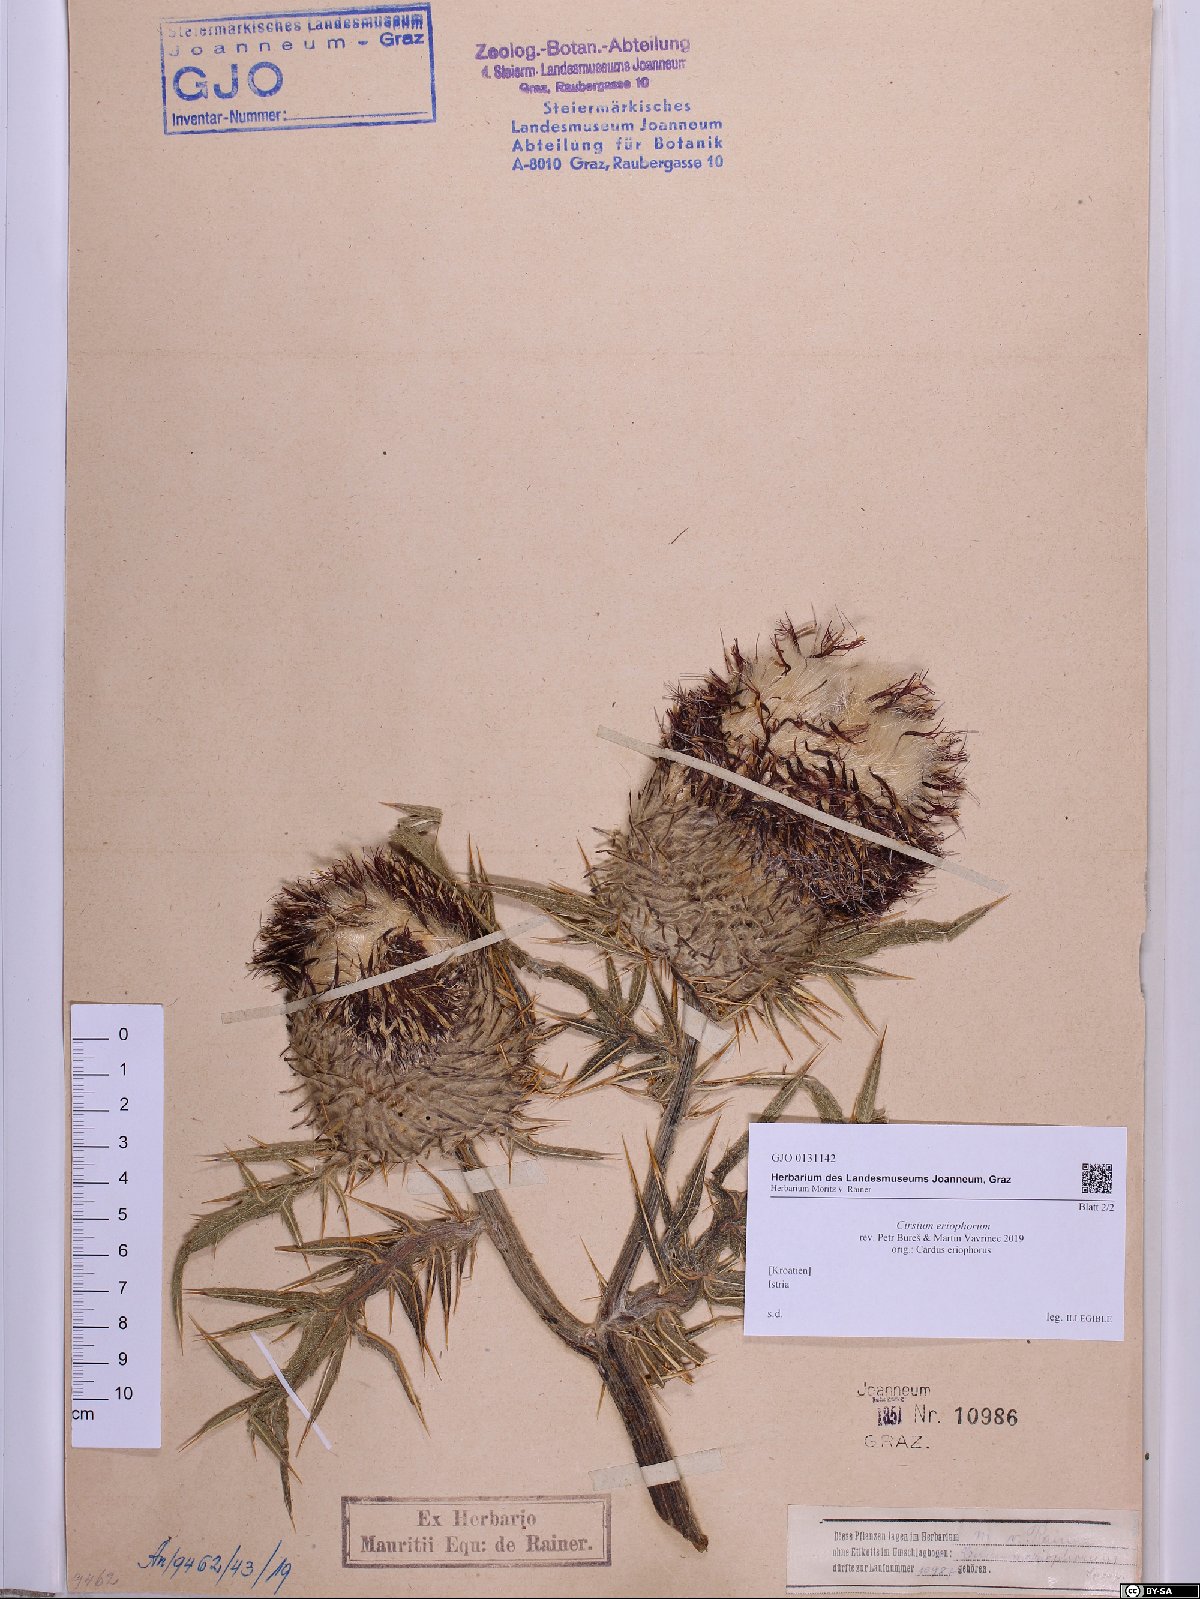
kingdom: Plantae
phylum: Tracheophyta
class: Magnoliopsida
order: Asterales
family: Asteraceae
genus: Lophiolepis
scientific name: Lophiolepis eriophora
